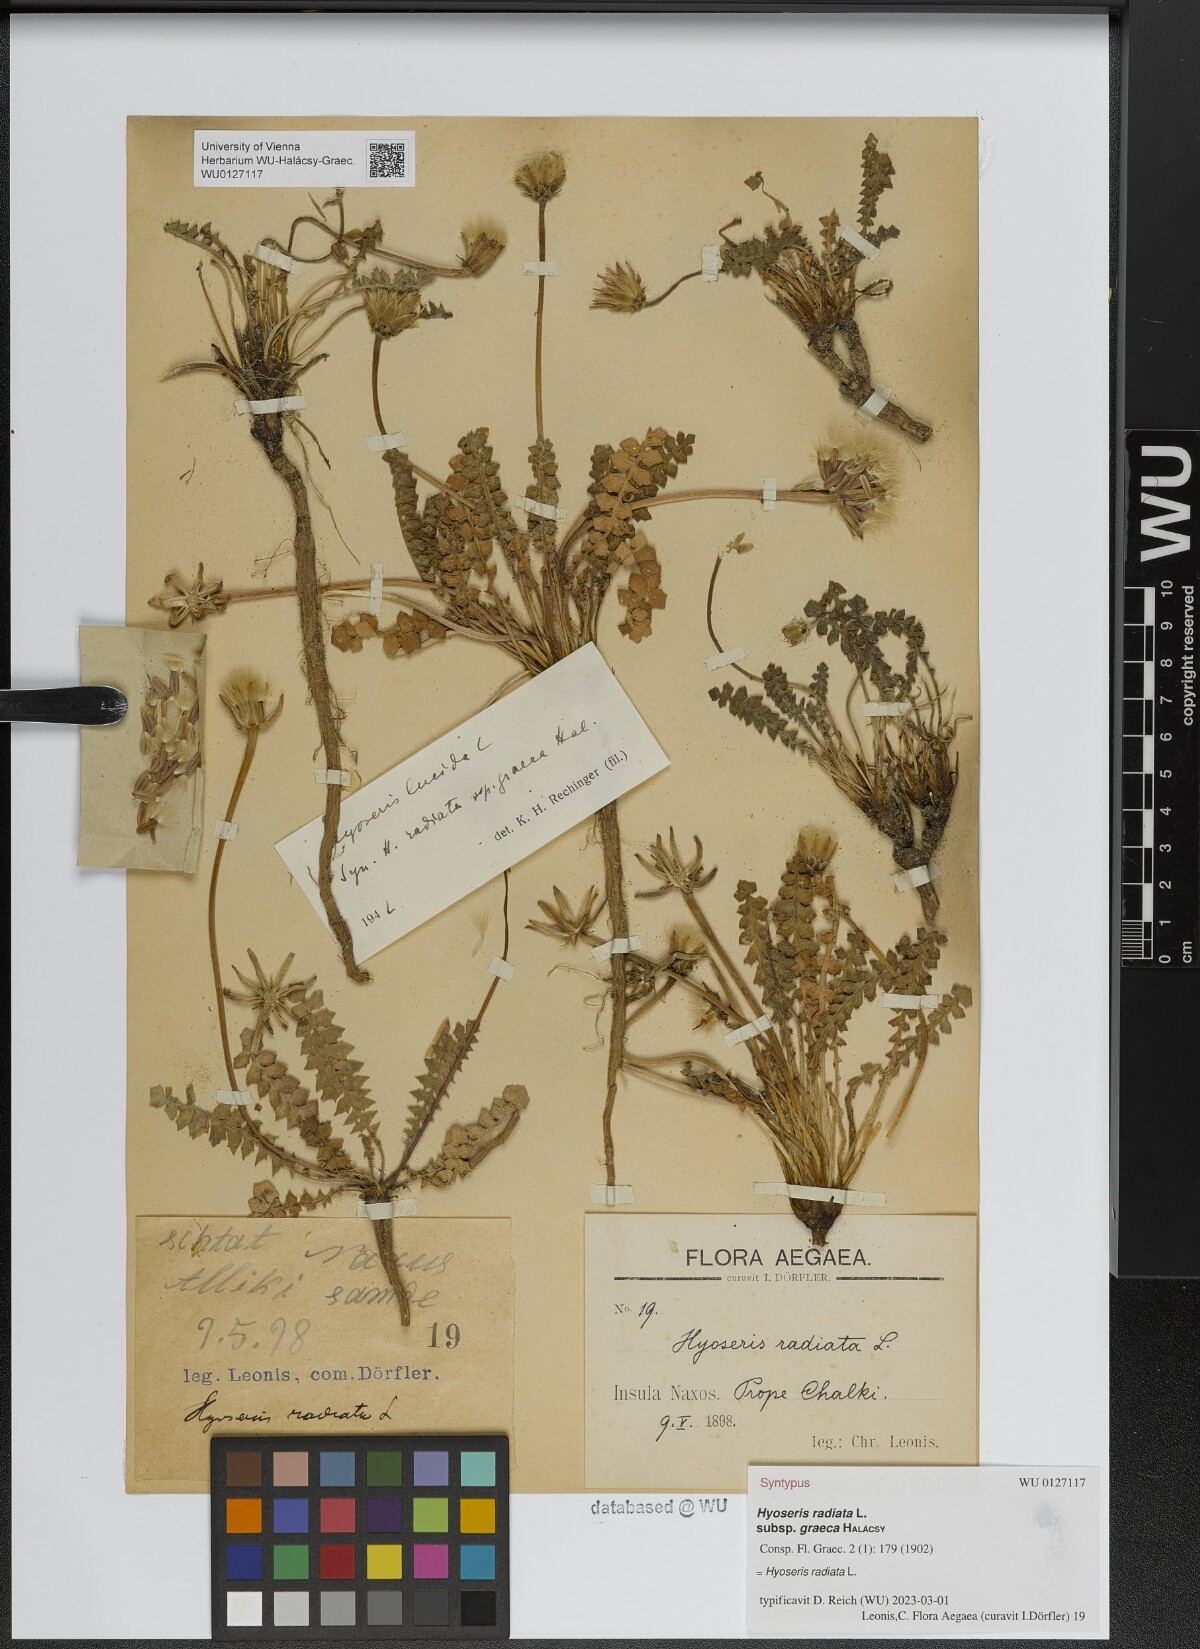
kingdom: Plantae
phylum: Tracheophyta
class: Magnoliopsida
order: Asterales
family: Asteraceae
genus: Hyoseris
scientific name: Hyoseris lucida
